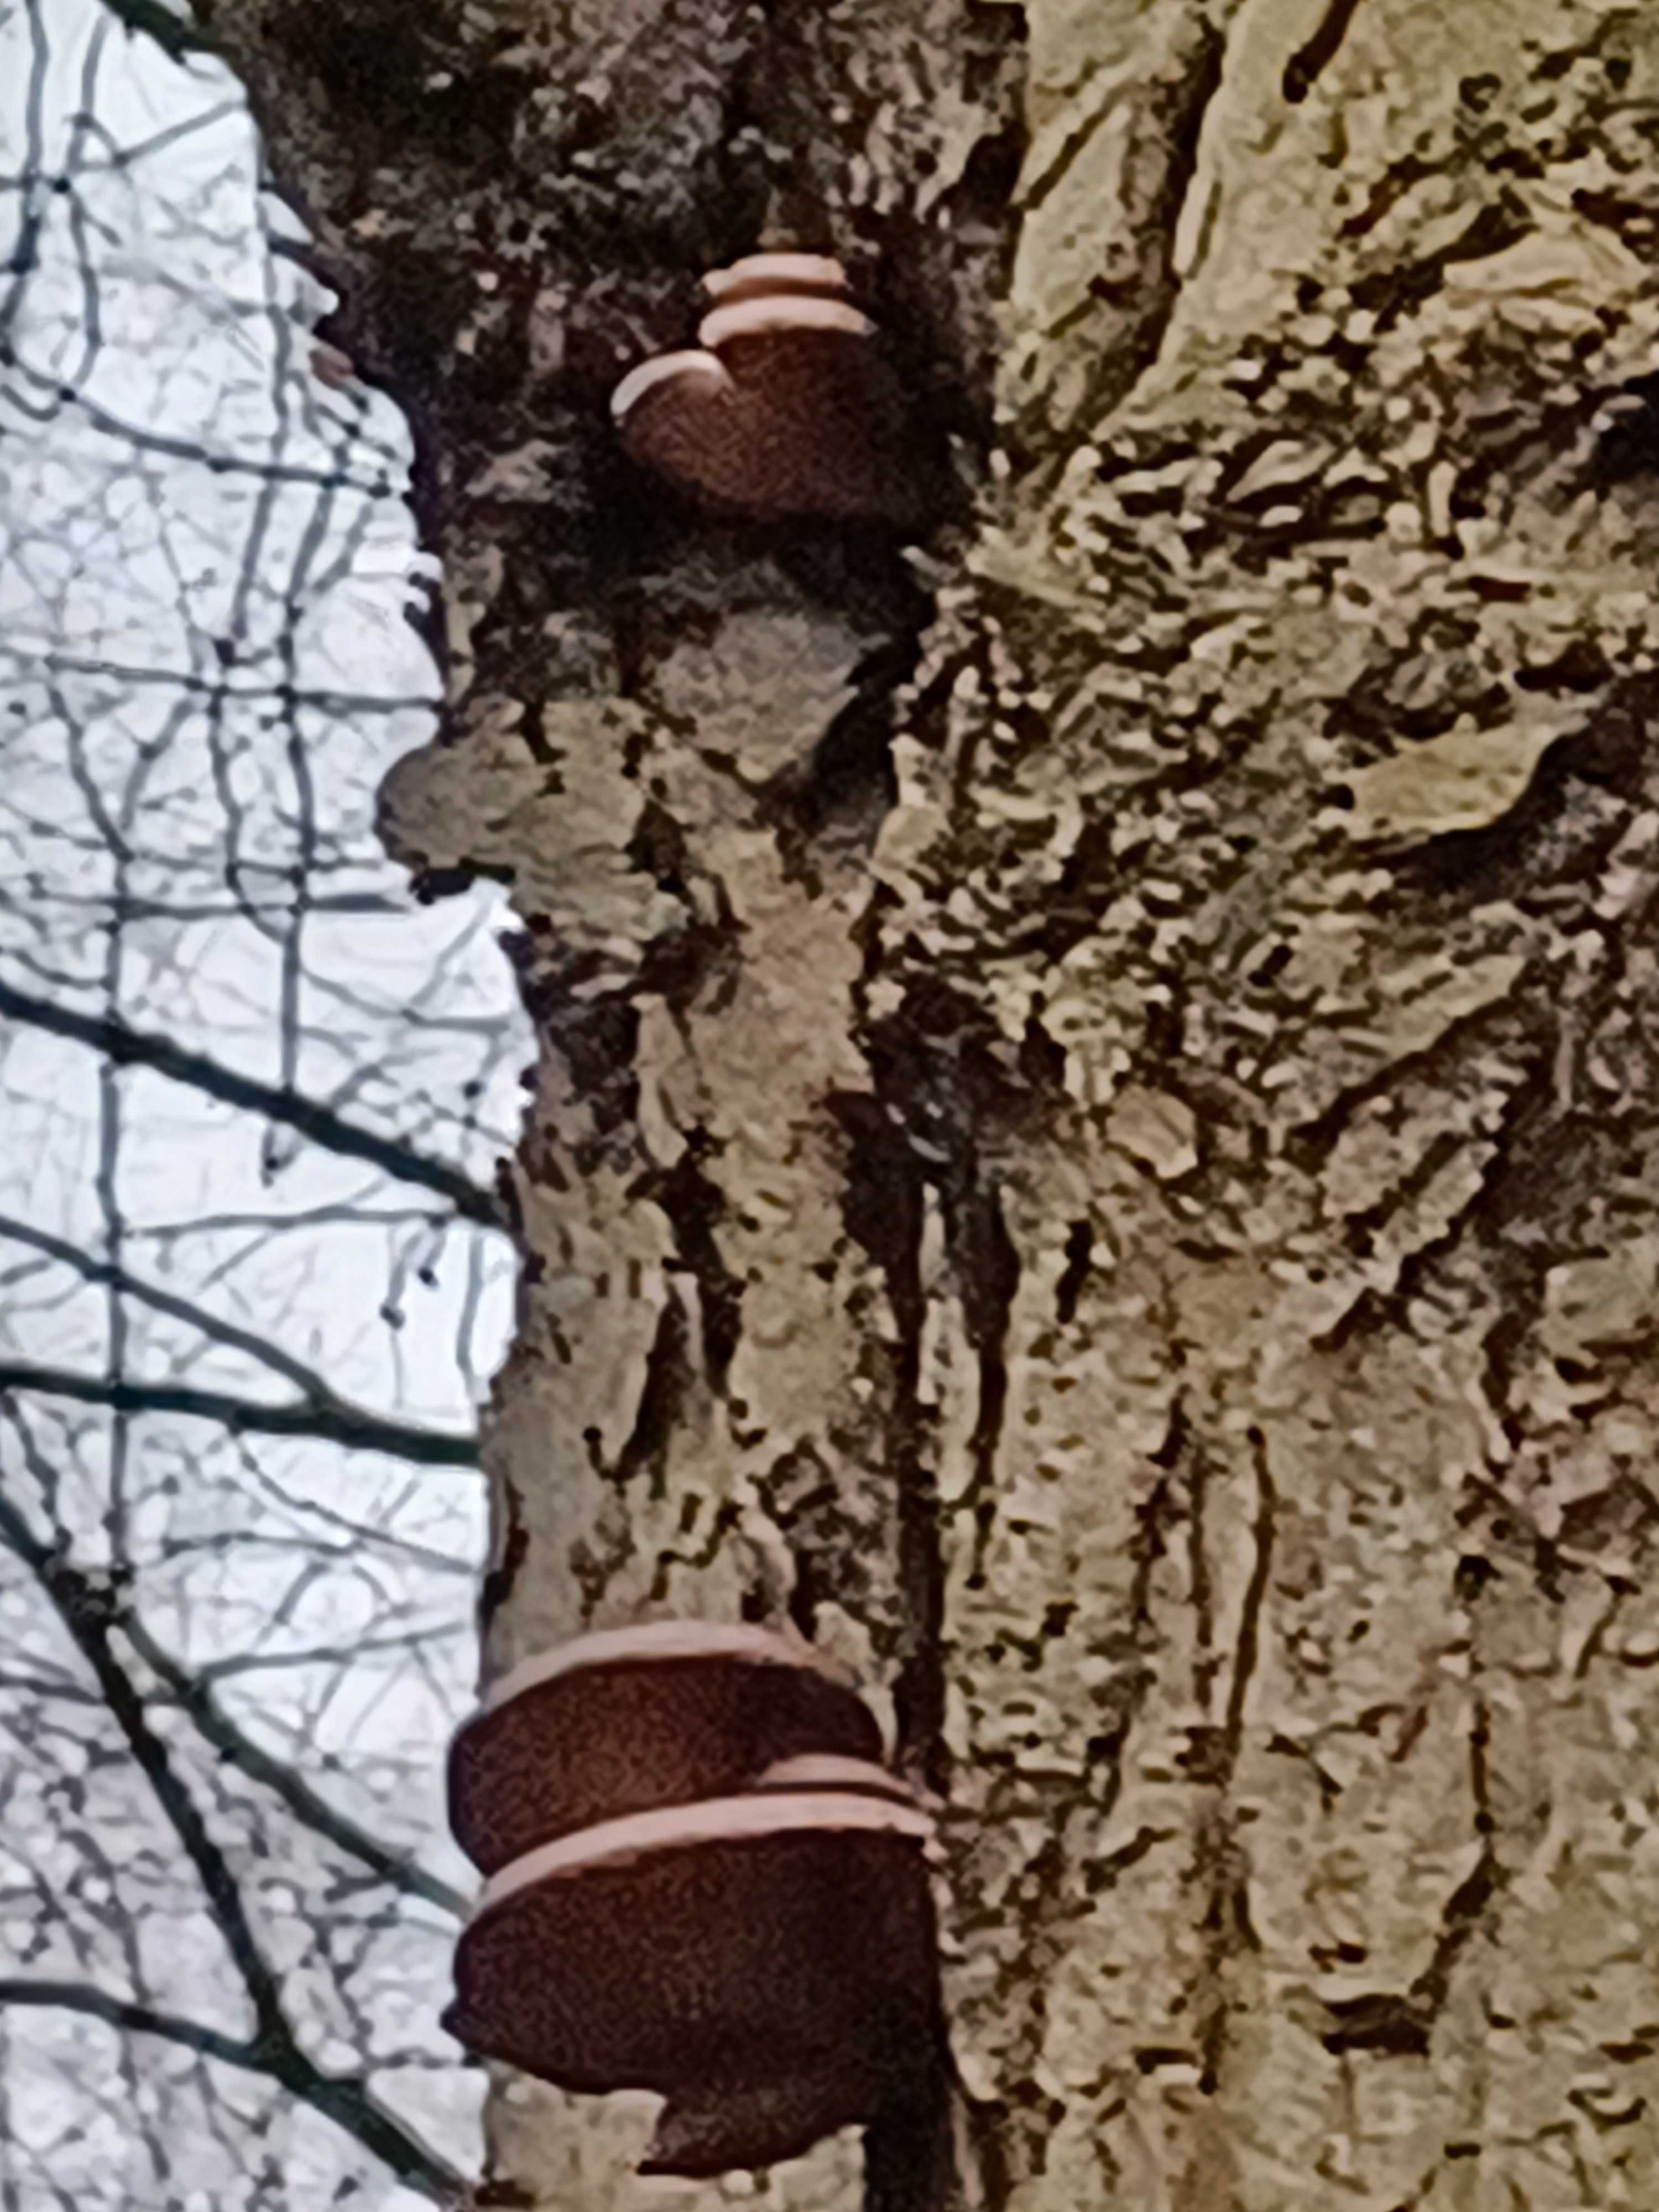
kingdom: Fungi
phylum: Basidiomycota
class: Agaricomycetes
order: Agaricales
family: Pleurotaceae
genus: Pleurotus
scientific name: Pleurotus ostreatus
